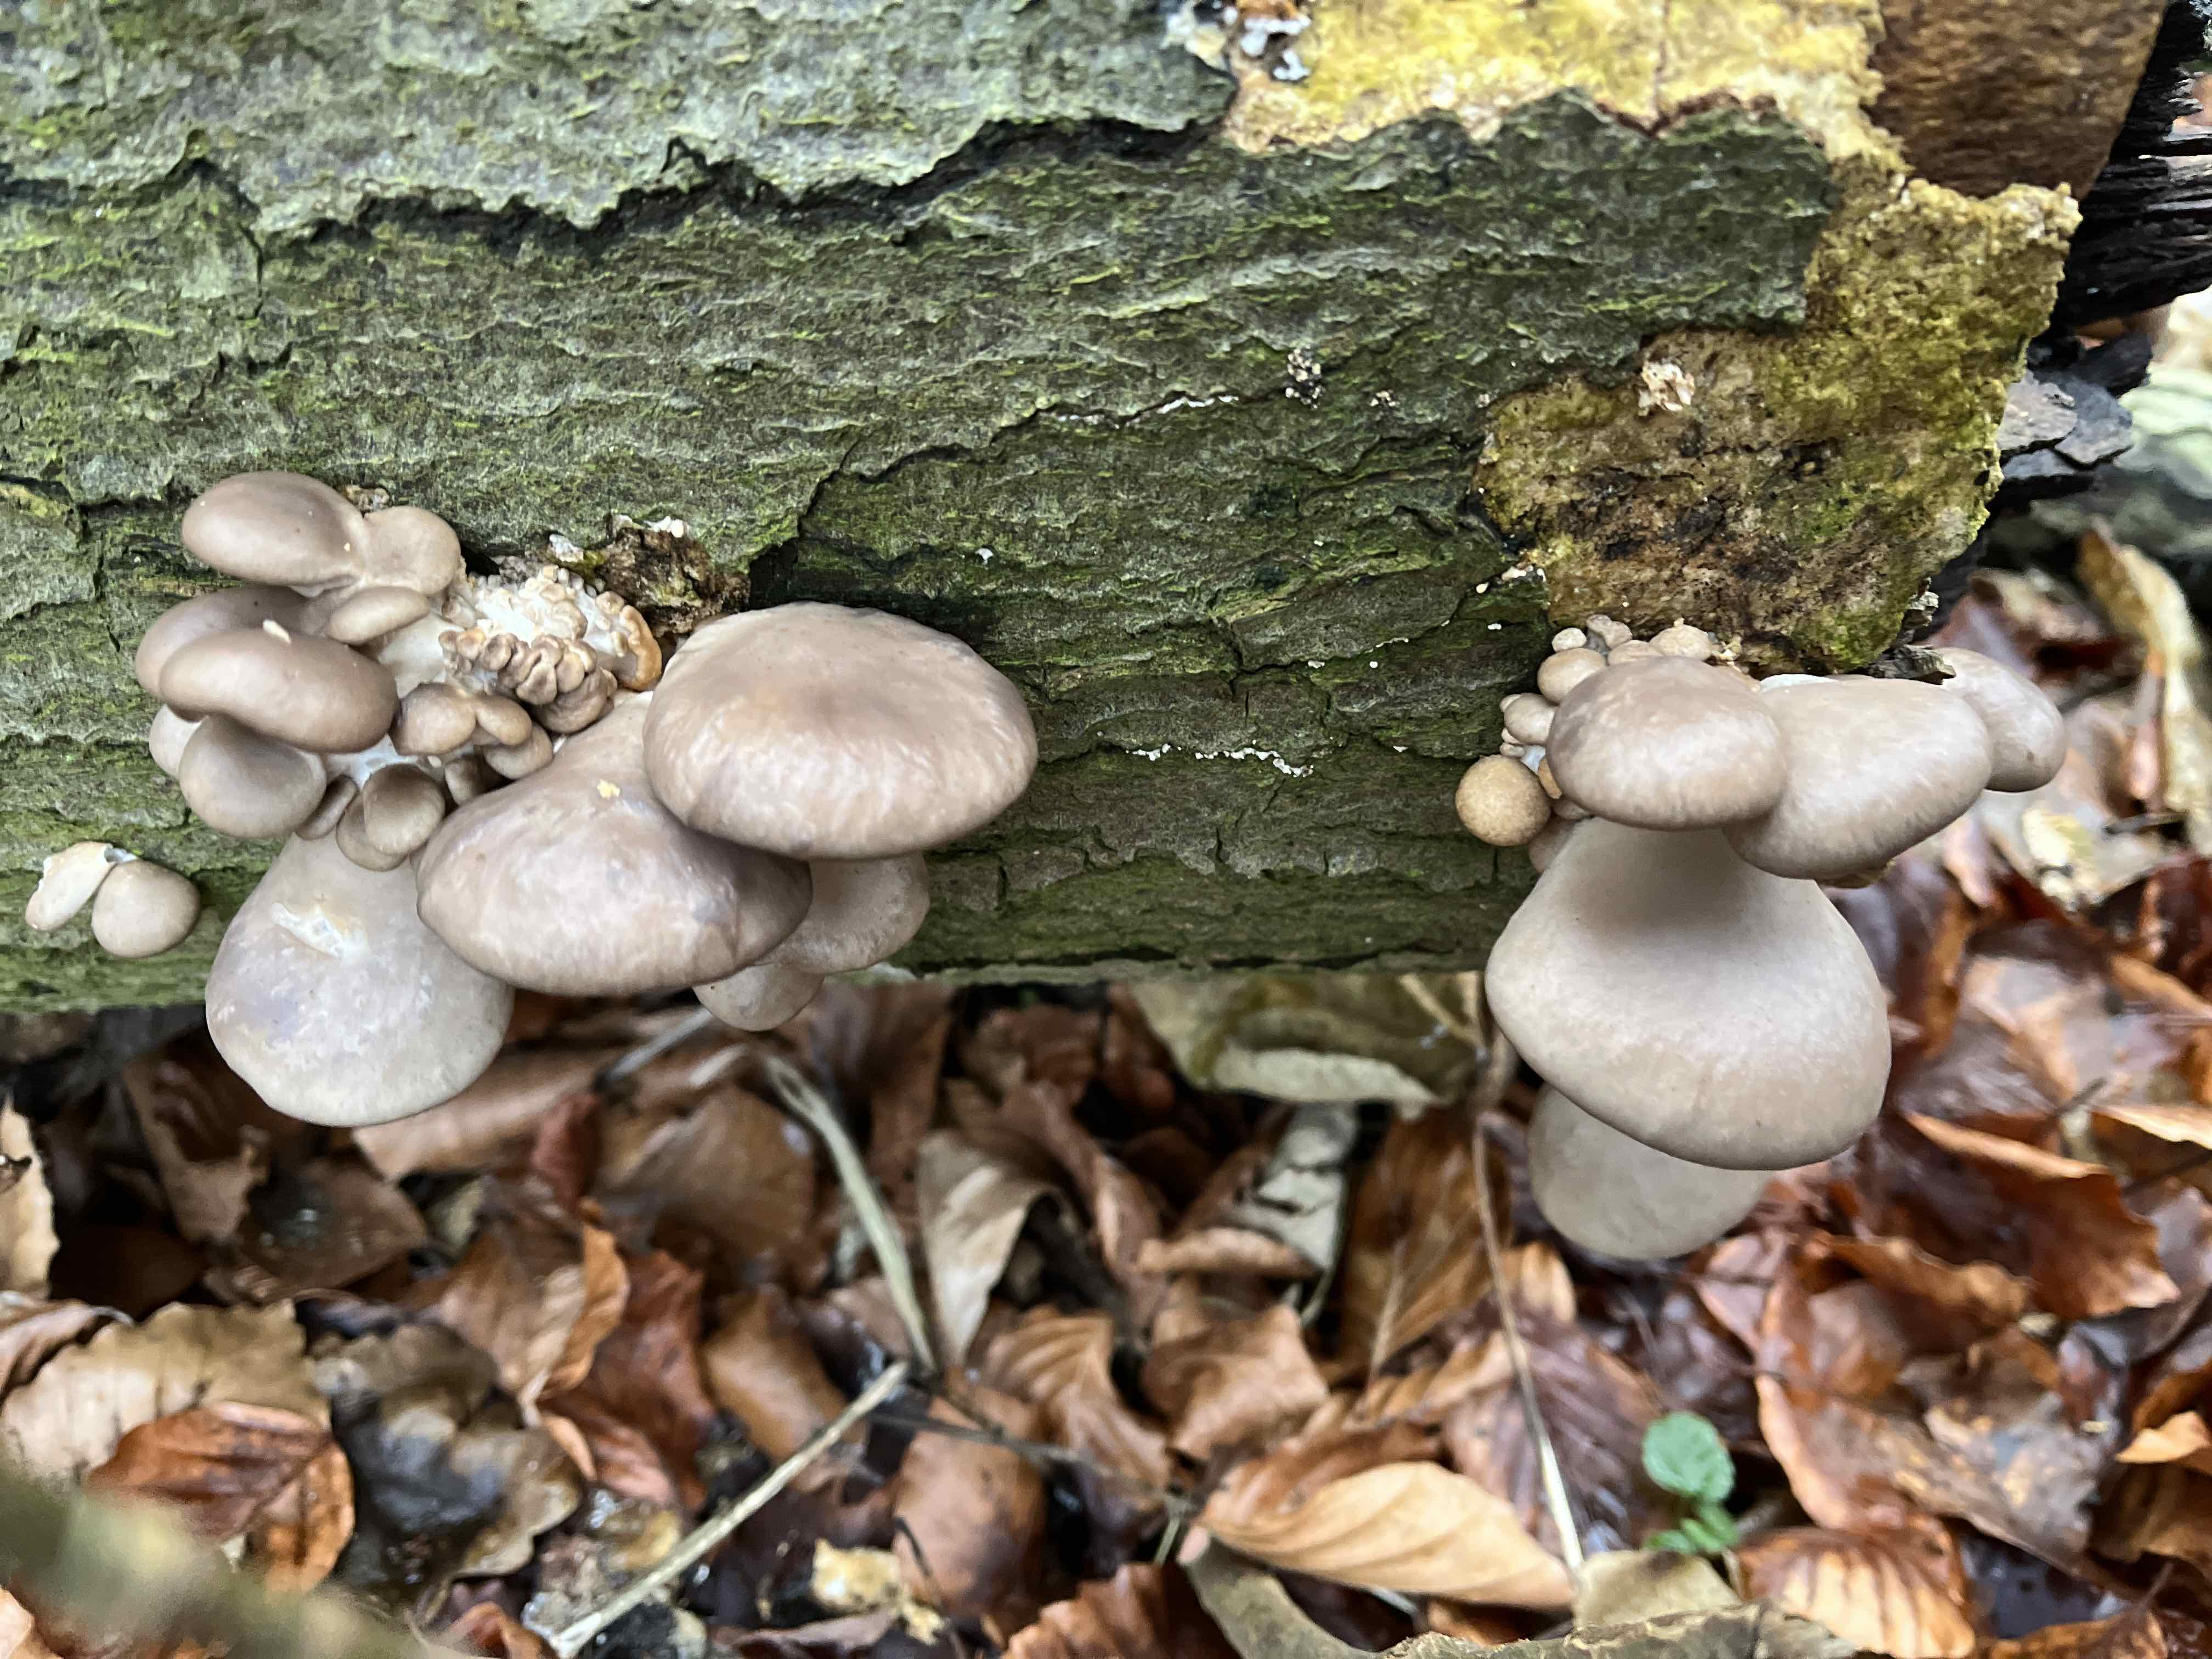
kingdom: Fungi
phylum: Basidiomycota
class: Agaricomycetes
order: Agaricales
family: Pleurotaceae
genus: Pleurotus
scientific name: Pleurotus ostreatus
